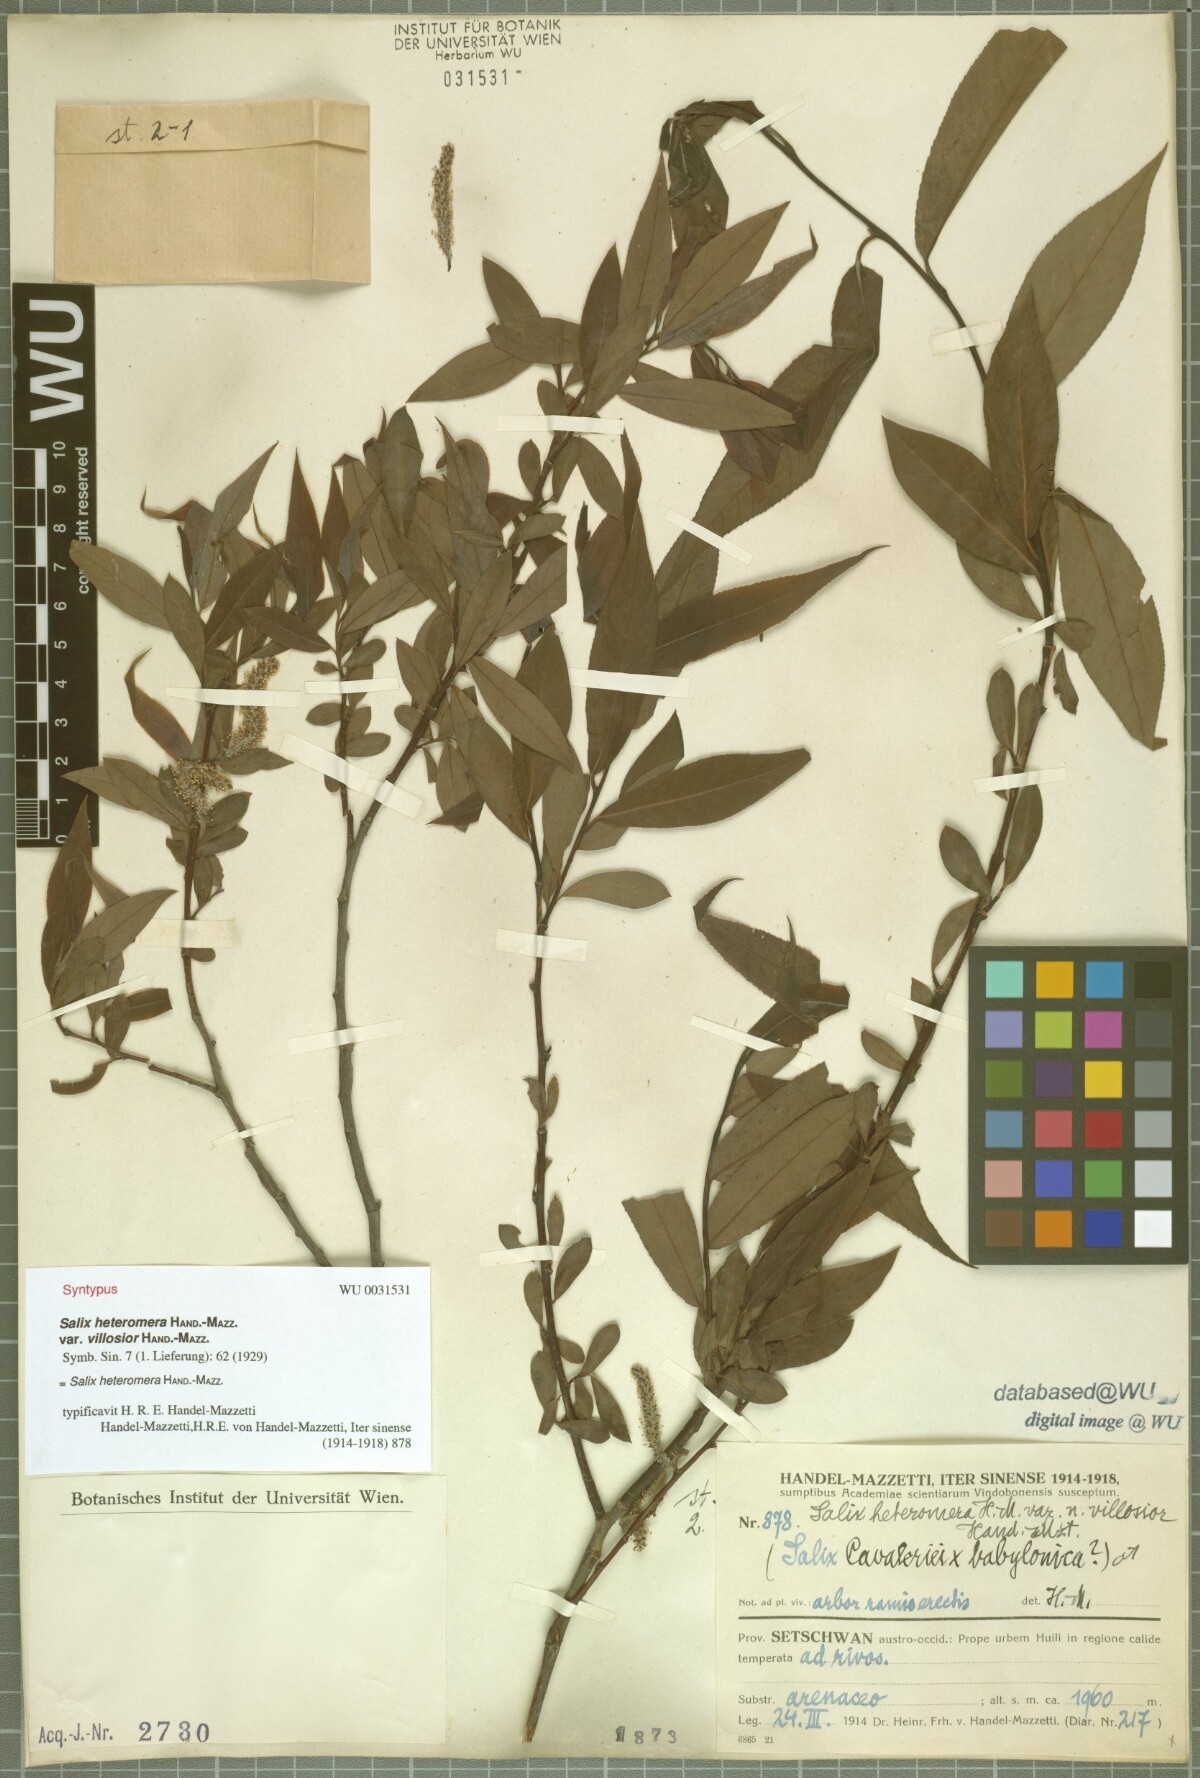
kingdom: Plantae
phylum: Tracheophyta
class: Magnoliopsida
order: Malpighiales
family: Salicaceae
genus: Salix
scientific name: Salix heteromera
